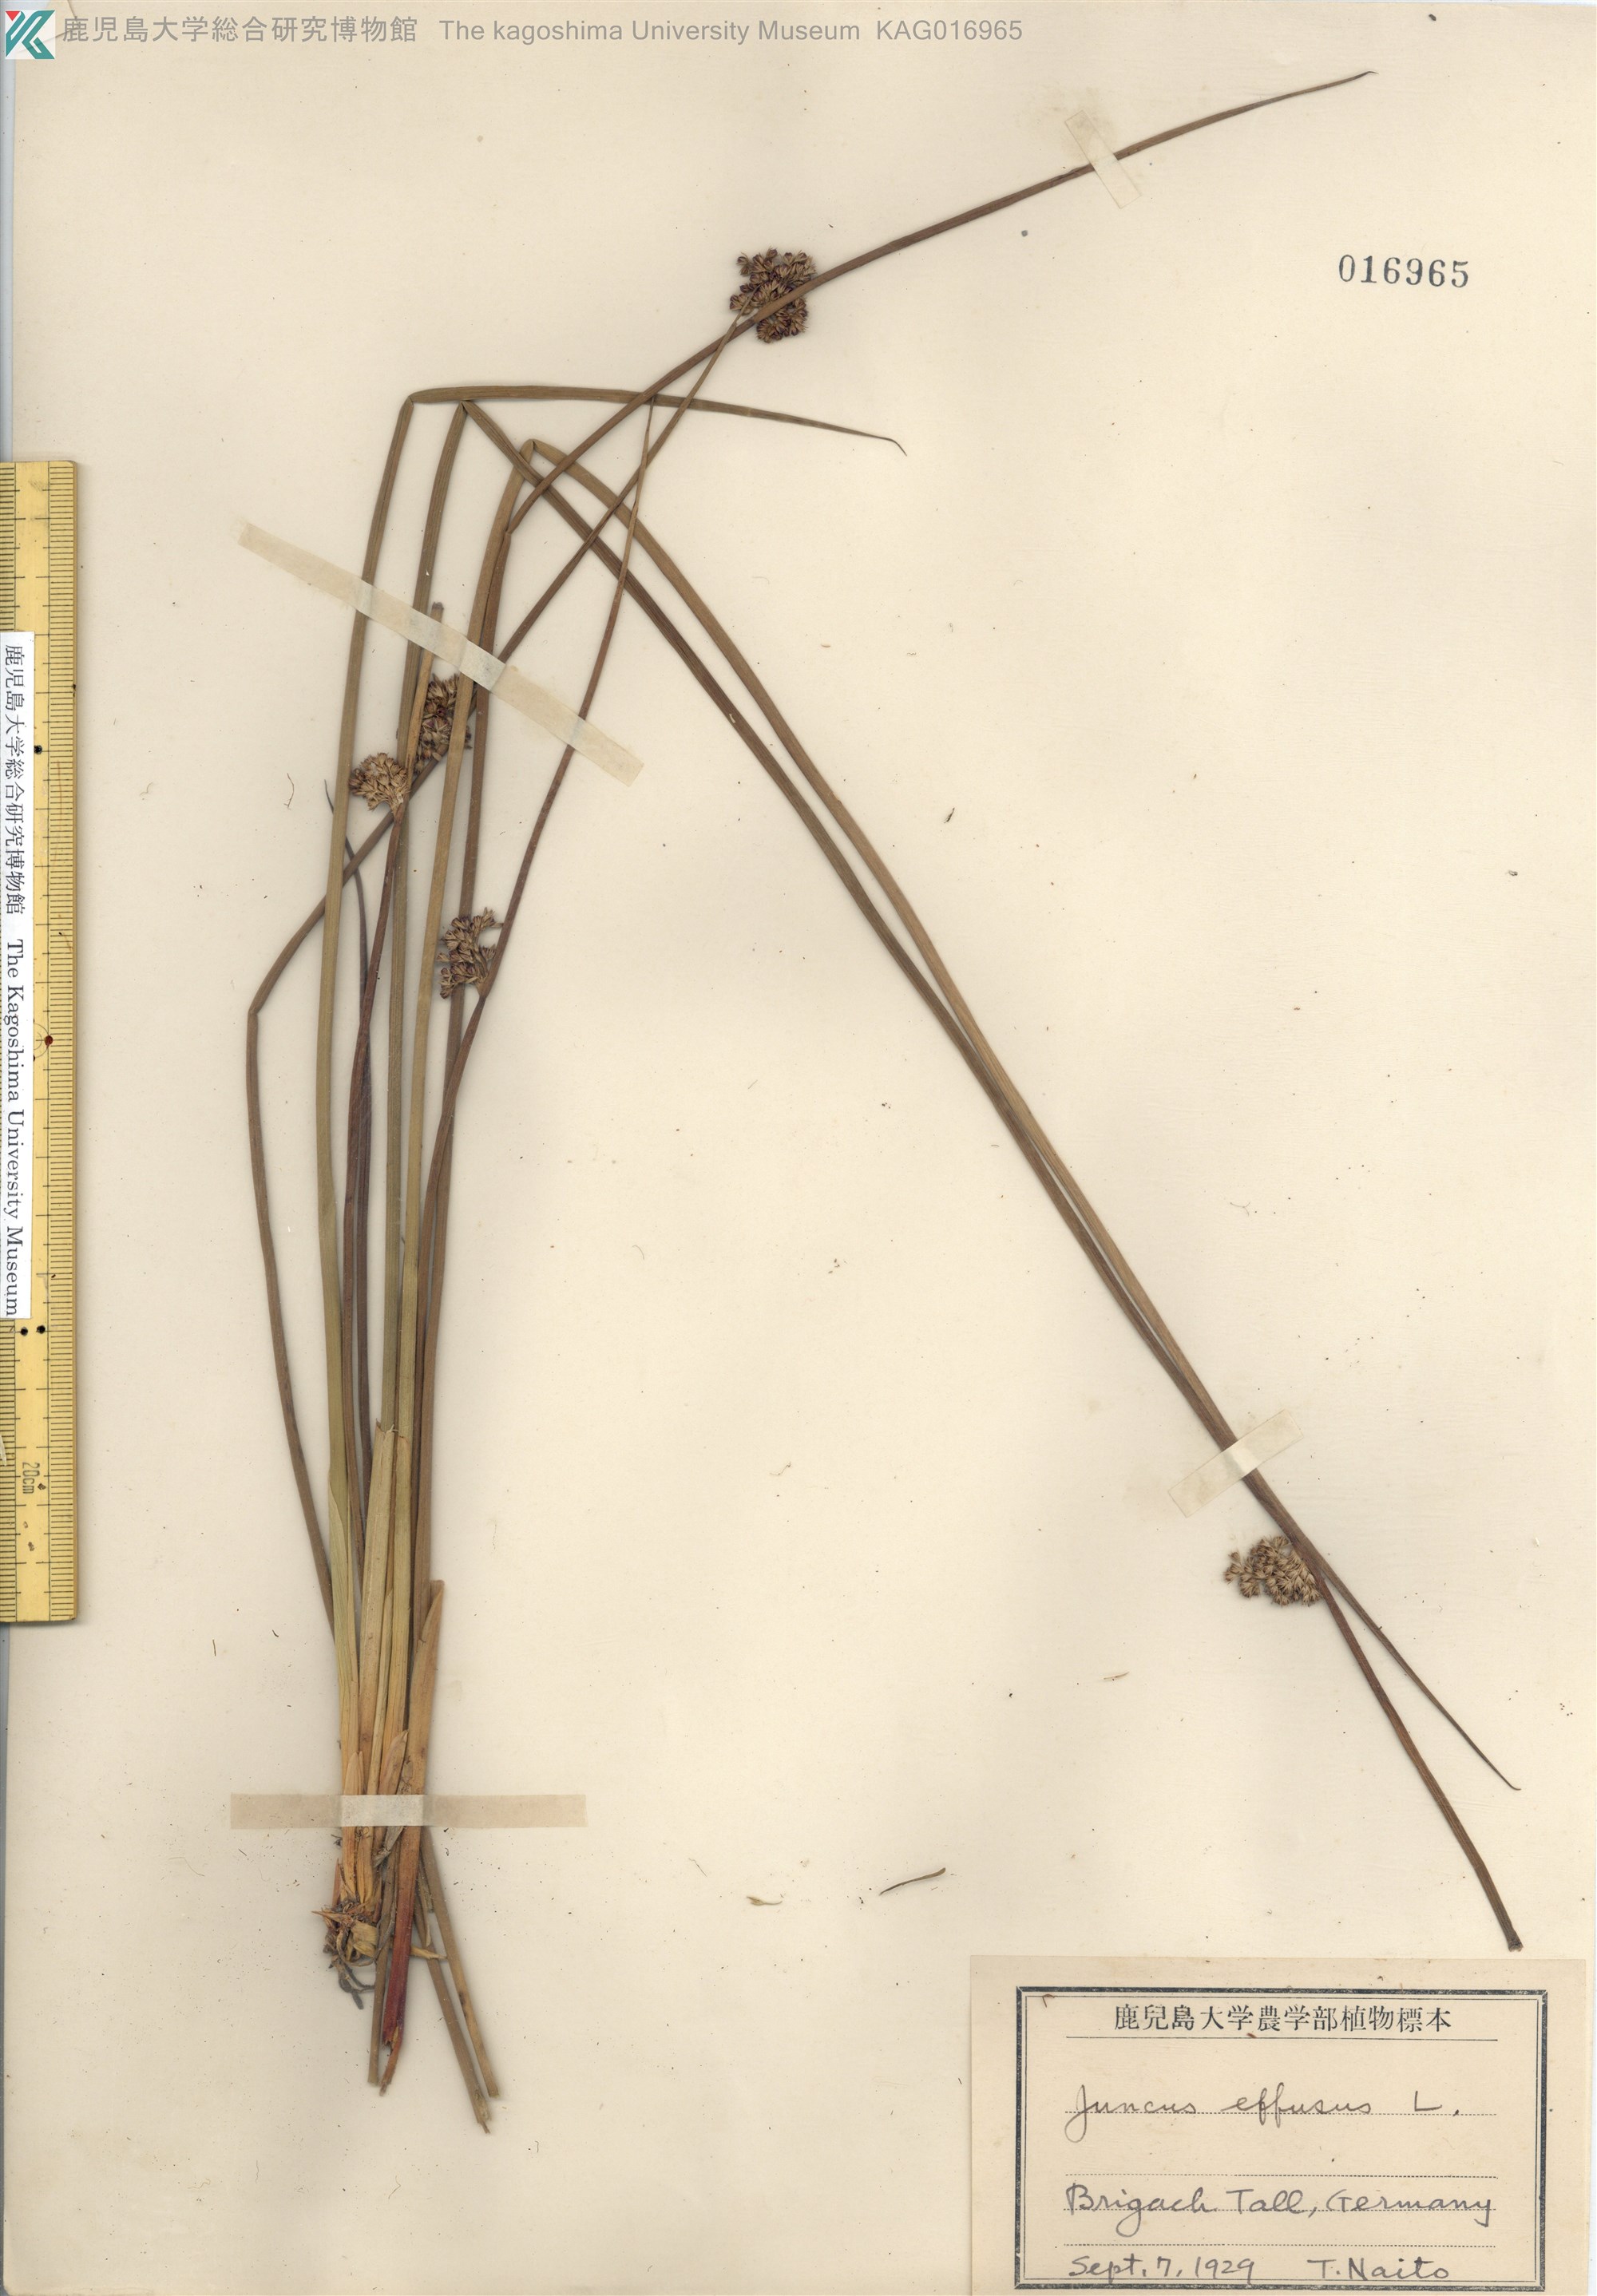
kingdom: Plantae
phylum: Tracheophyta
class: Liliopsida
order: Poales
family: Juncaceae
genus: Juncus
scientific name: Juncus decipiens
